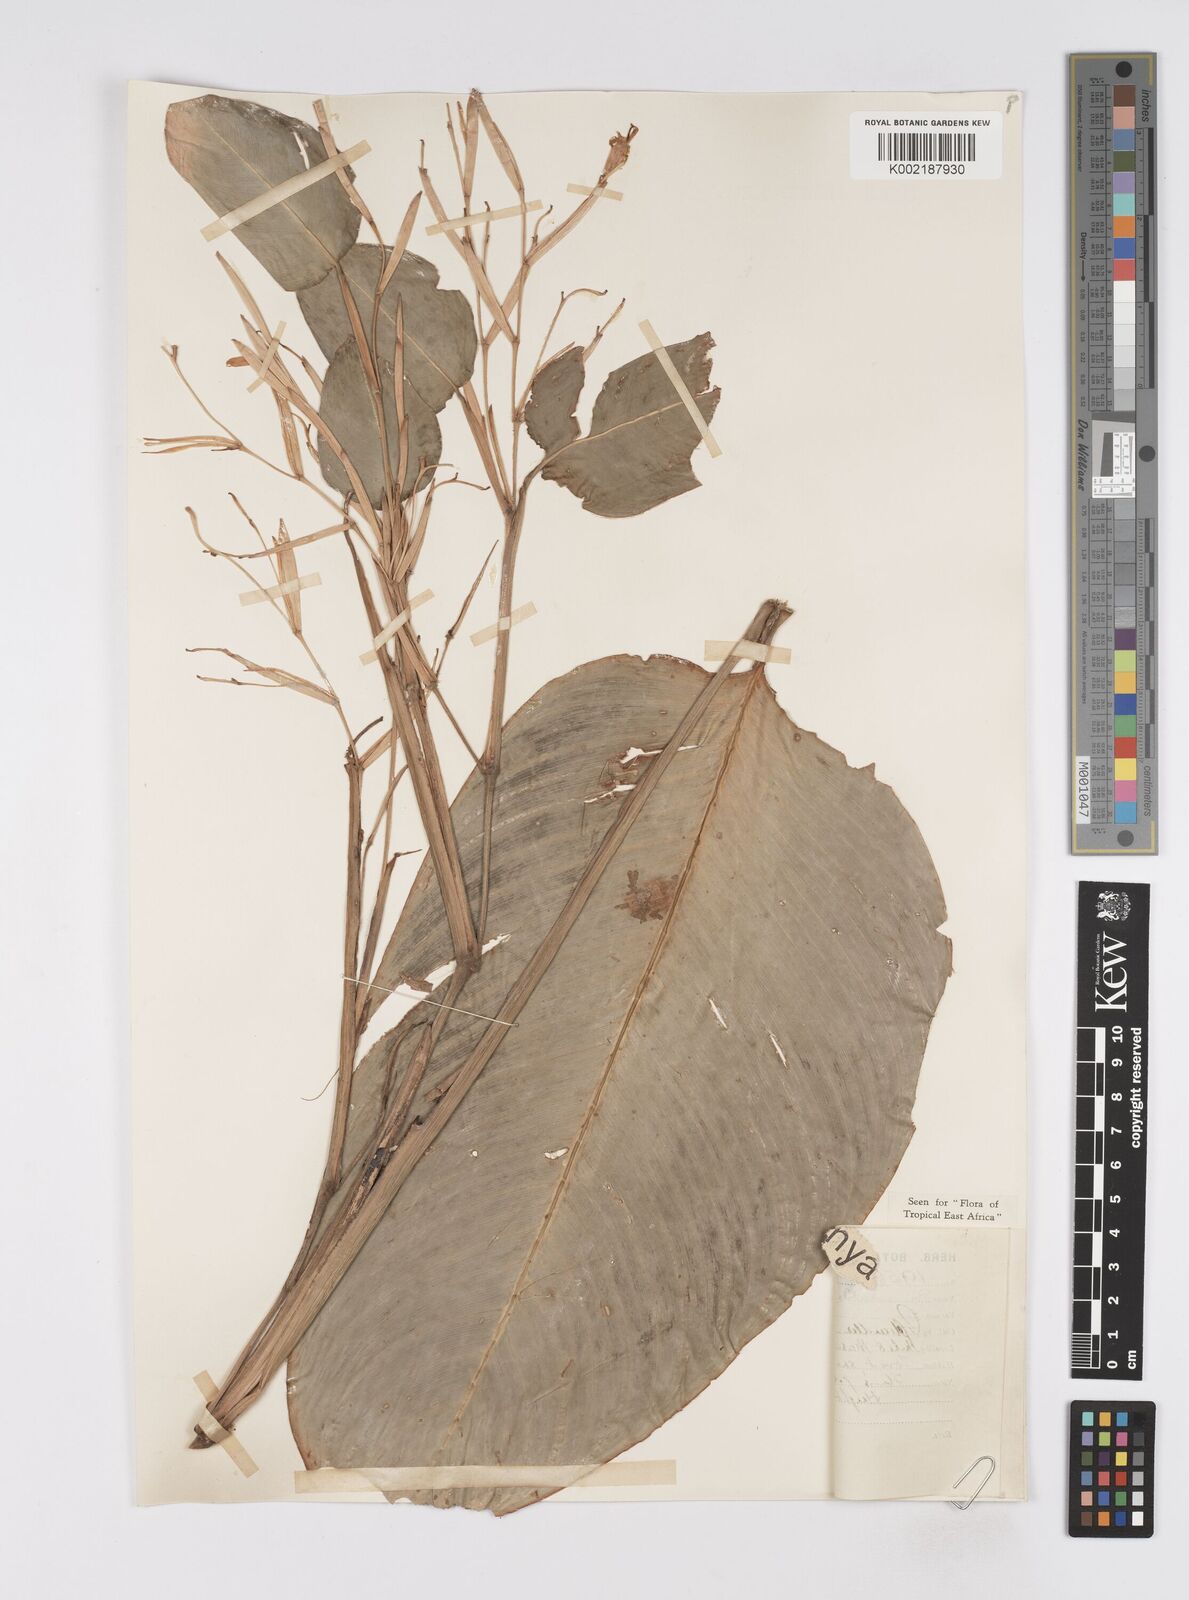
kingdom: Plantae
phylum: Tracheophyta
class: Liliopsida
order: Zingiberales
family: Marantaceae
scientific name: Marantaceae
